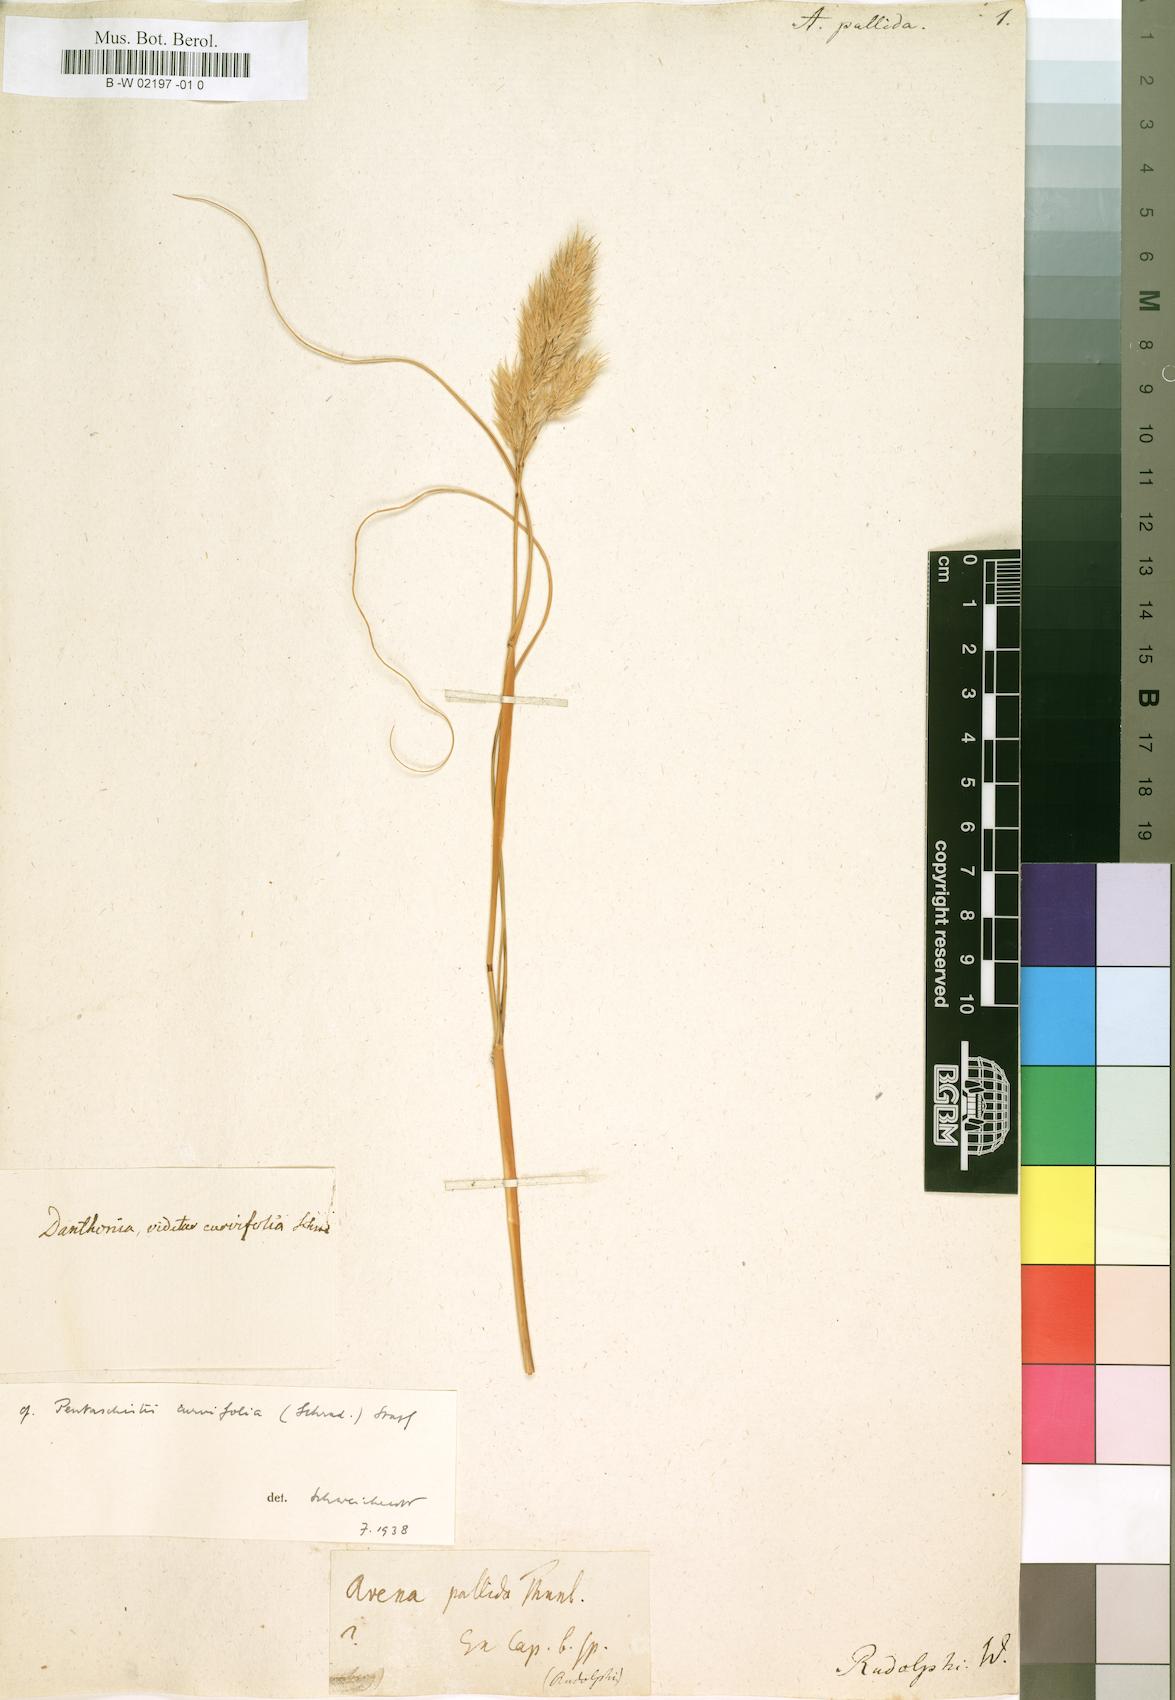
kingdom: Plantae
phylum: Tracheophyta
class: Liliopsida
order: Poales
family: Poaceae
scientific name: Poaceae
